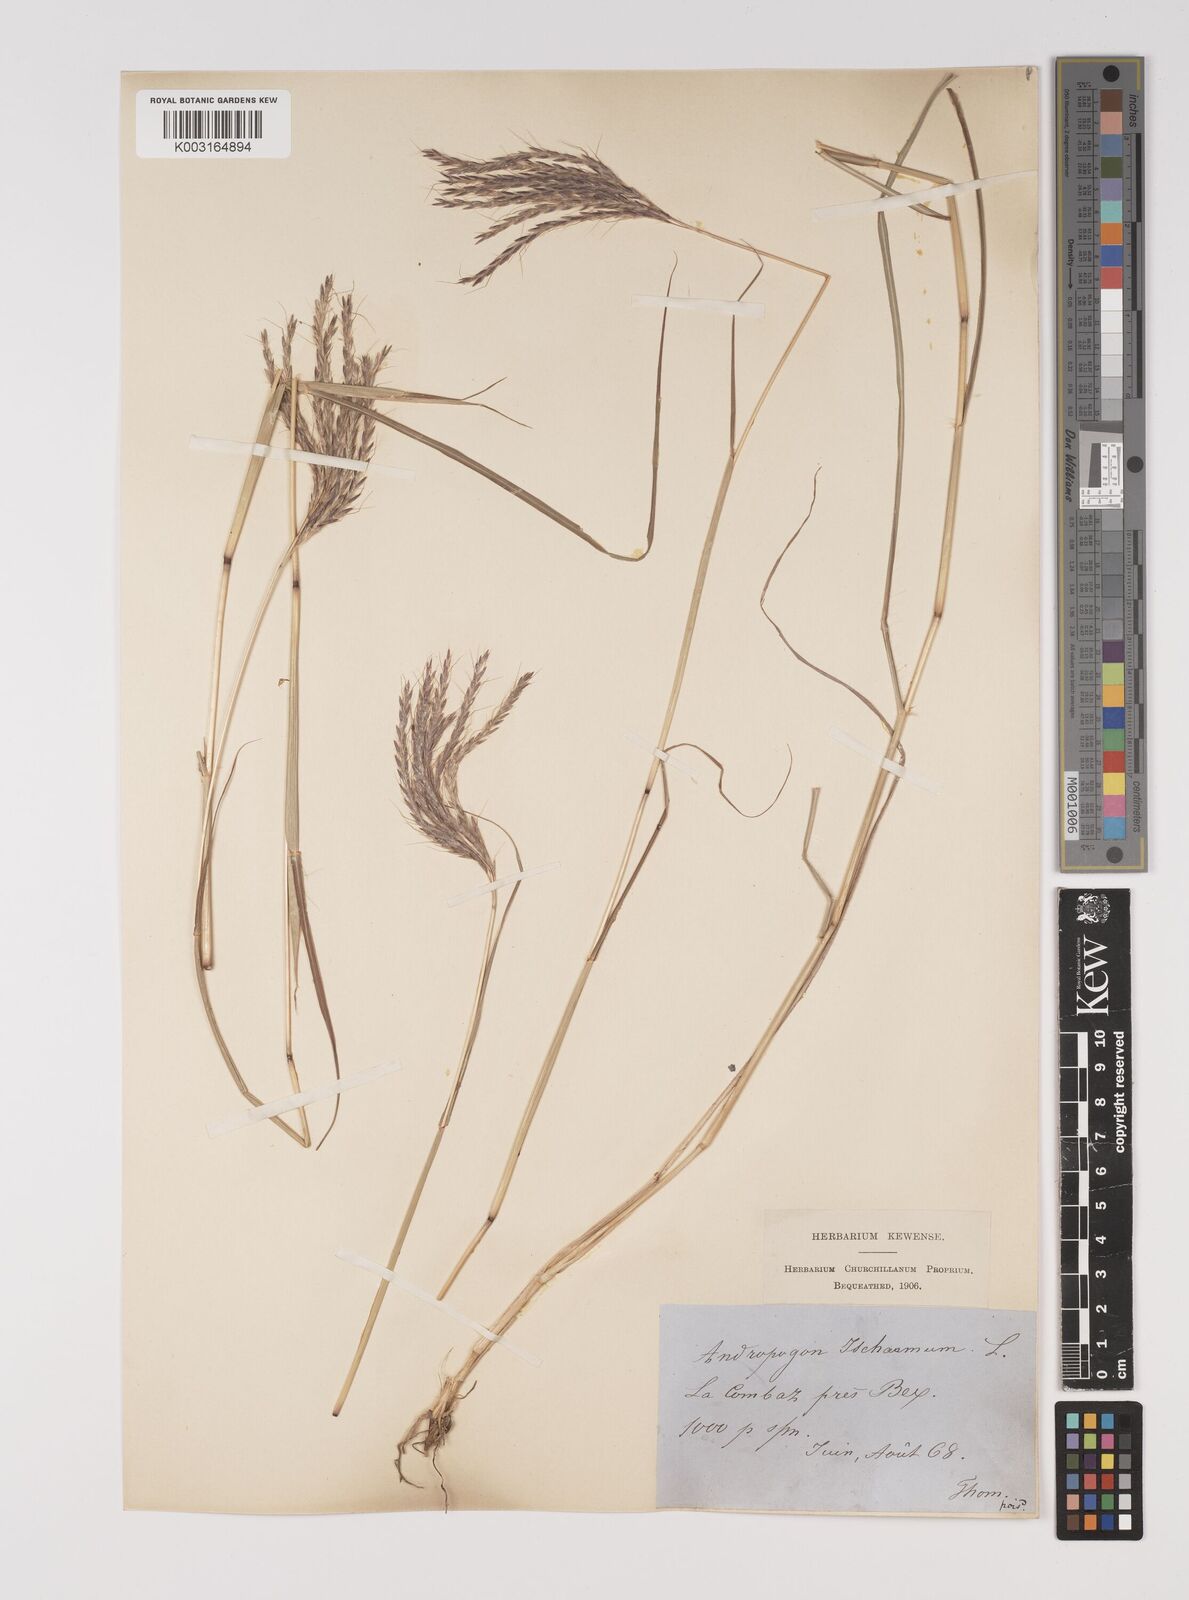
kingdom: Plantae
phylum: Tracheophyta
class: Liliopsida
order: Poales
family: Poaceae
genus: Bothriochloa
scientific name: Bothriochloa ischaemum
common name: Yellow bluestem
